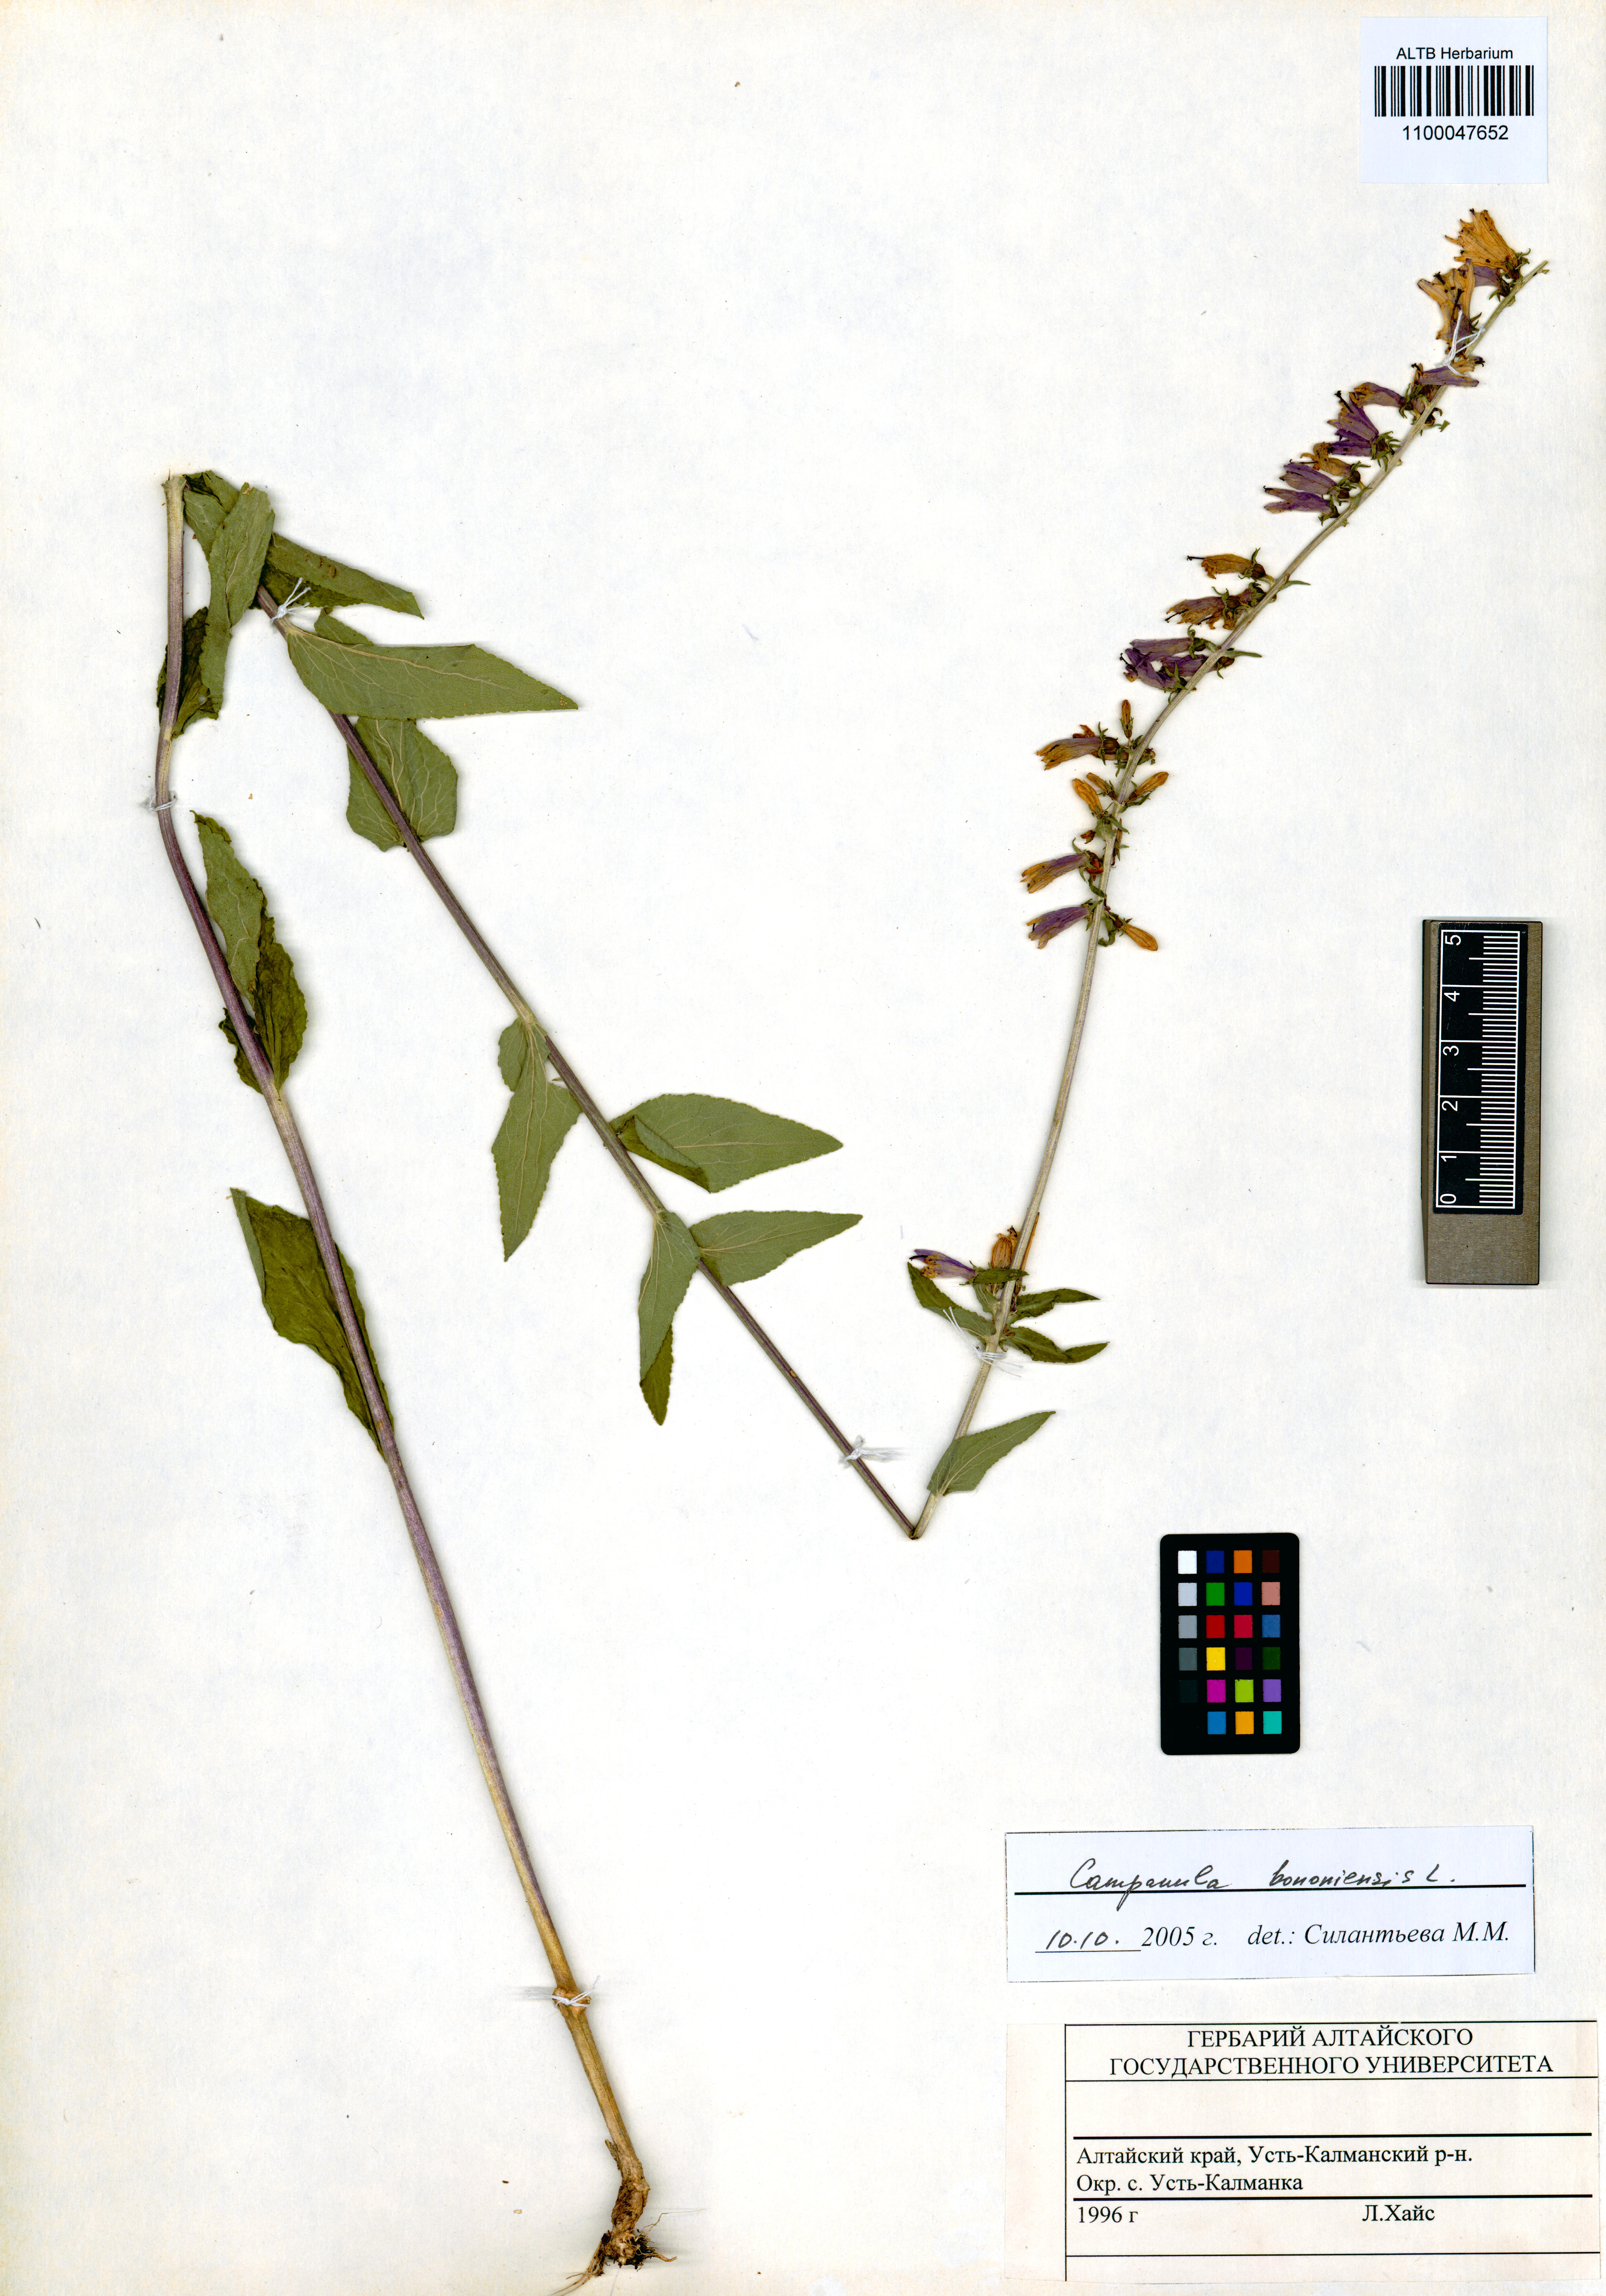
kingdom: Plantae
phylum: Tracheophyta
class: Magnoliopsida
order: Asterales
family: Campanulaceae
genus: Campanula
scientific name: Campanula bononiensis
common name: Pale bellflower
